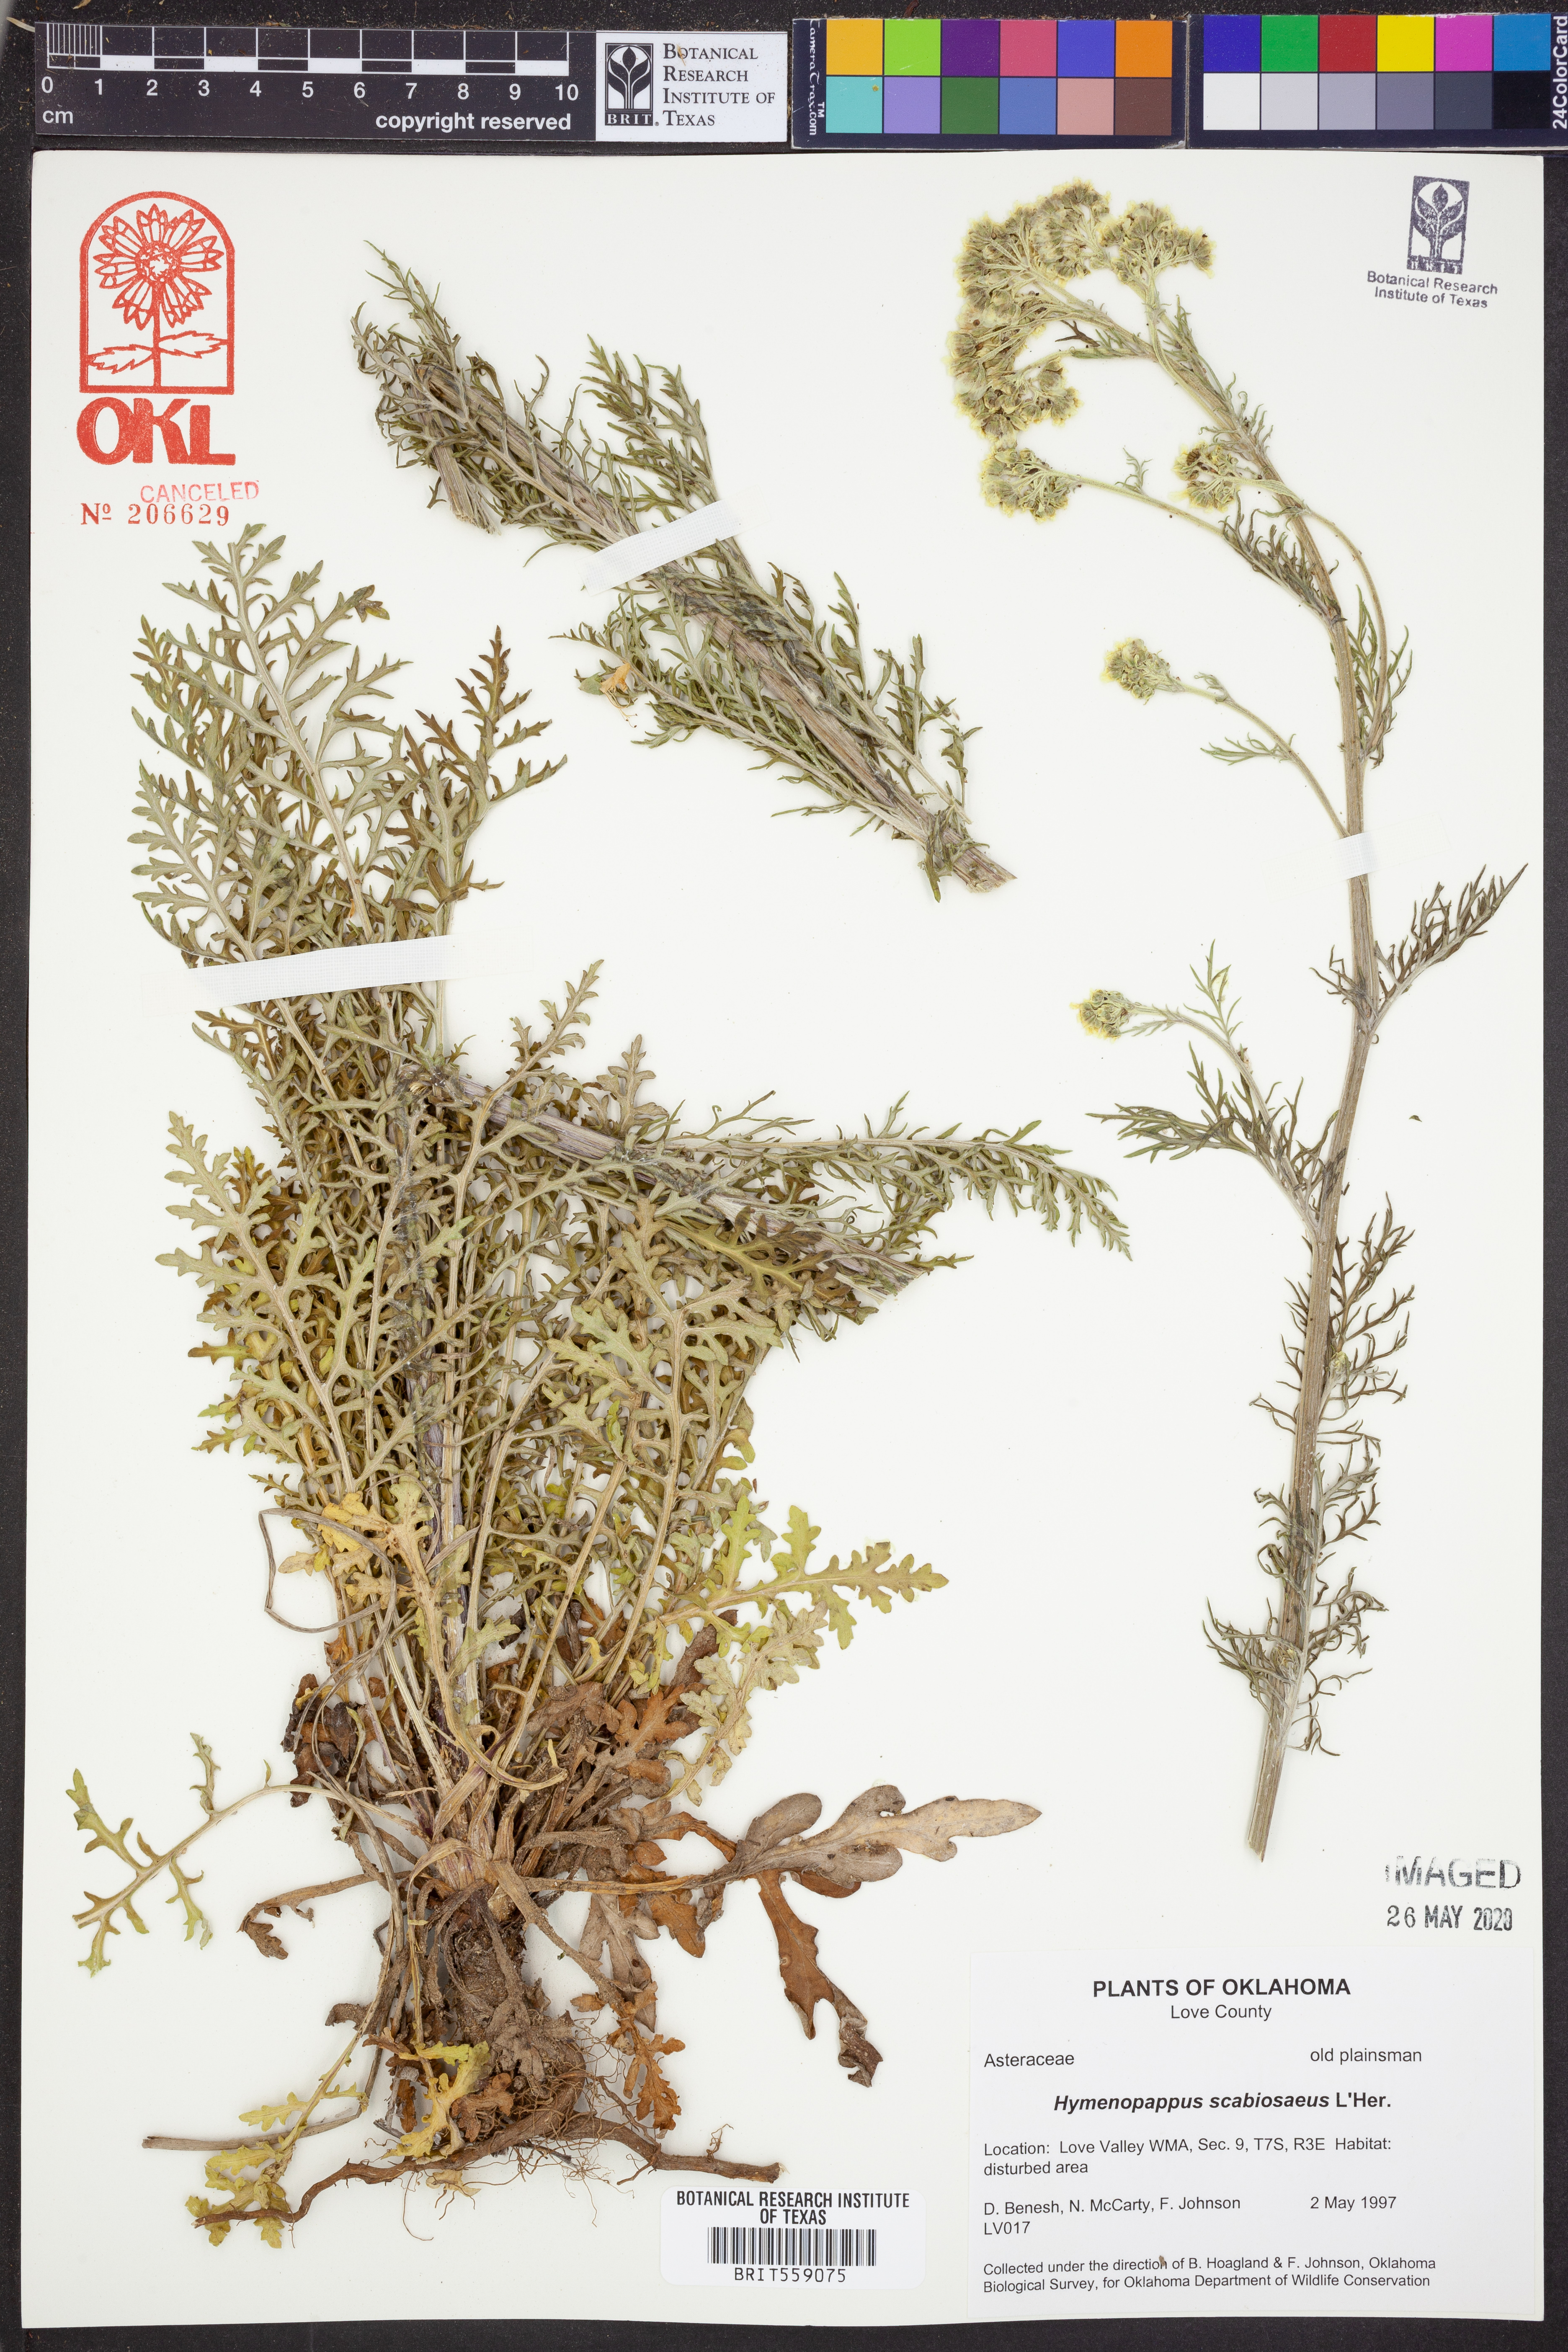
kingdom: Plantae
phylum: Tracheophyta
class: Magnoliopsida
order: Asterales
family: Asteraceae
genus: Hymenopappus
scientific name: Hymenopappus scabiosaeus
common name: Carolina woollywhite
